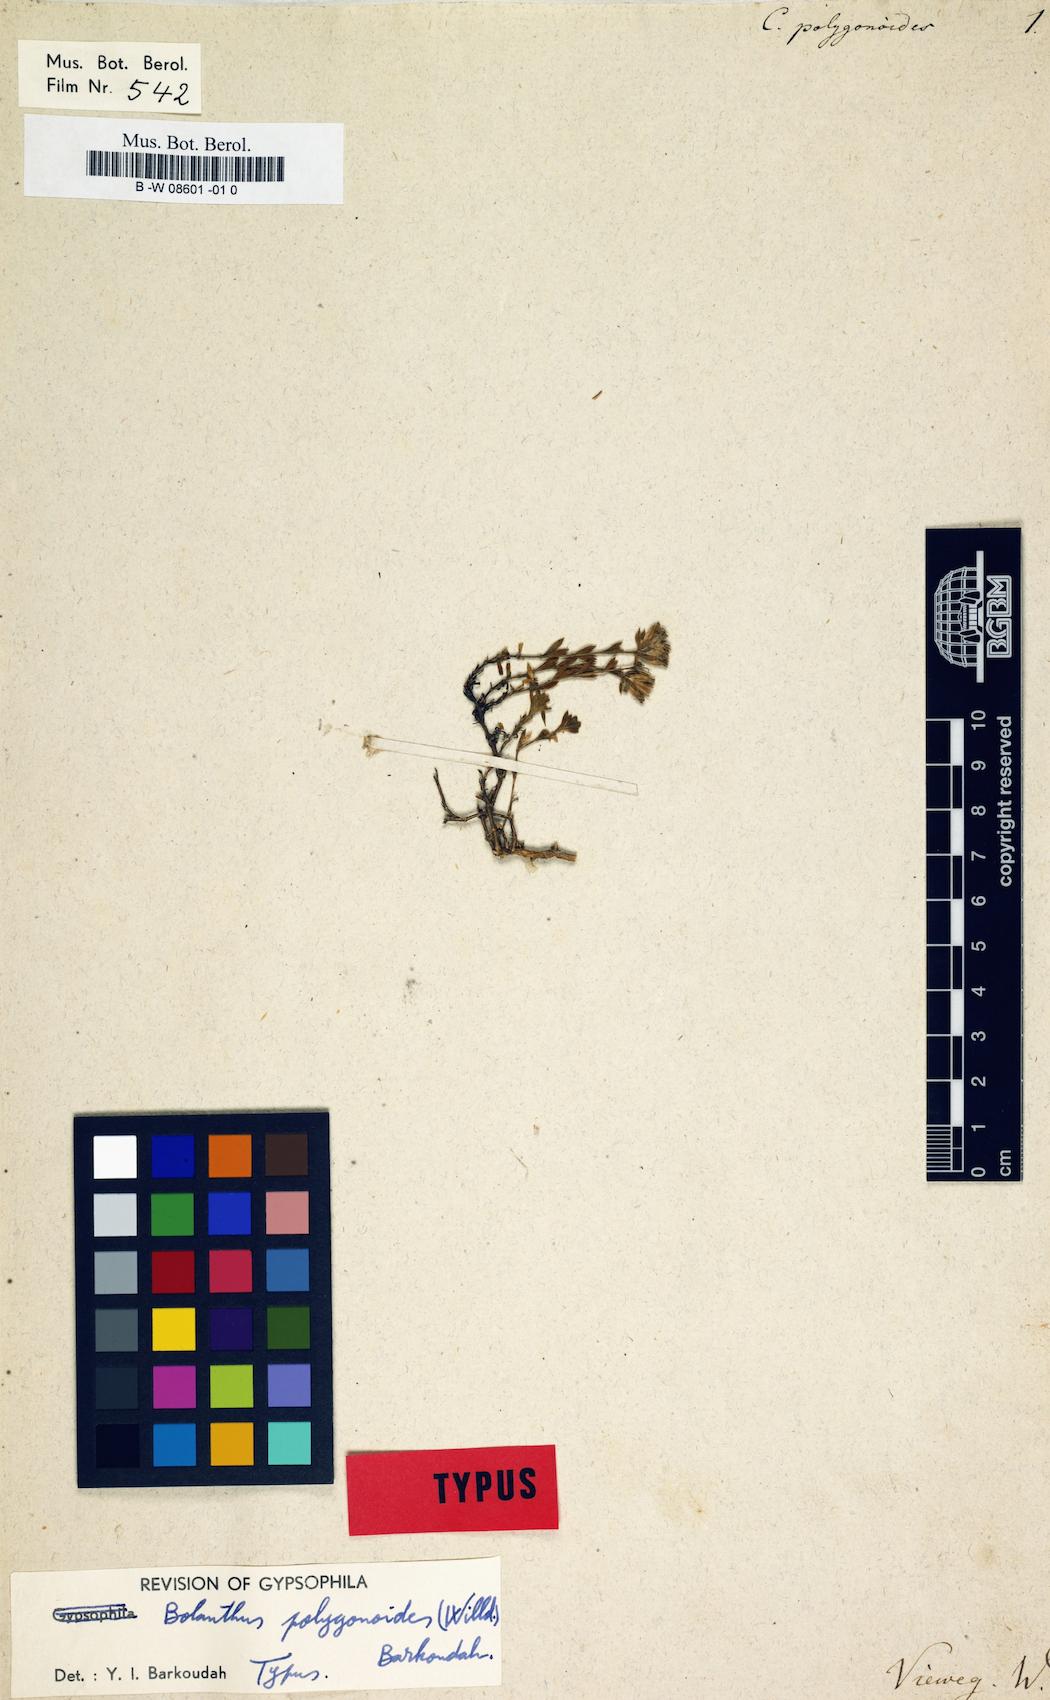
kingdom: Plantae
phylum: Tracheophyta
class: Magnoliopsida
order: Caryophyllales
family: Caryophyllaceae
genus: Graecobolanthus
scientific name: Graecobolanthus graecus
